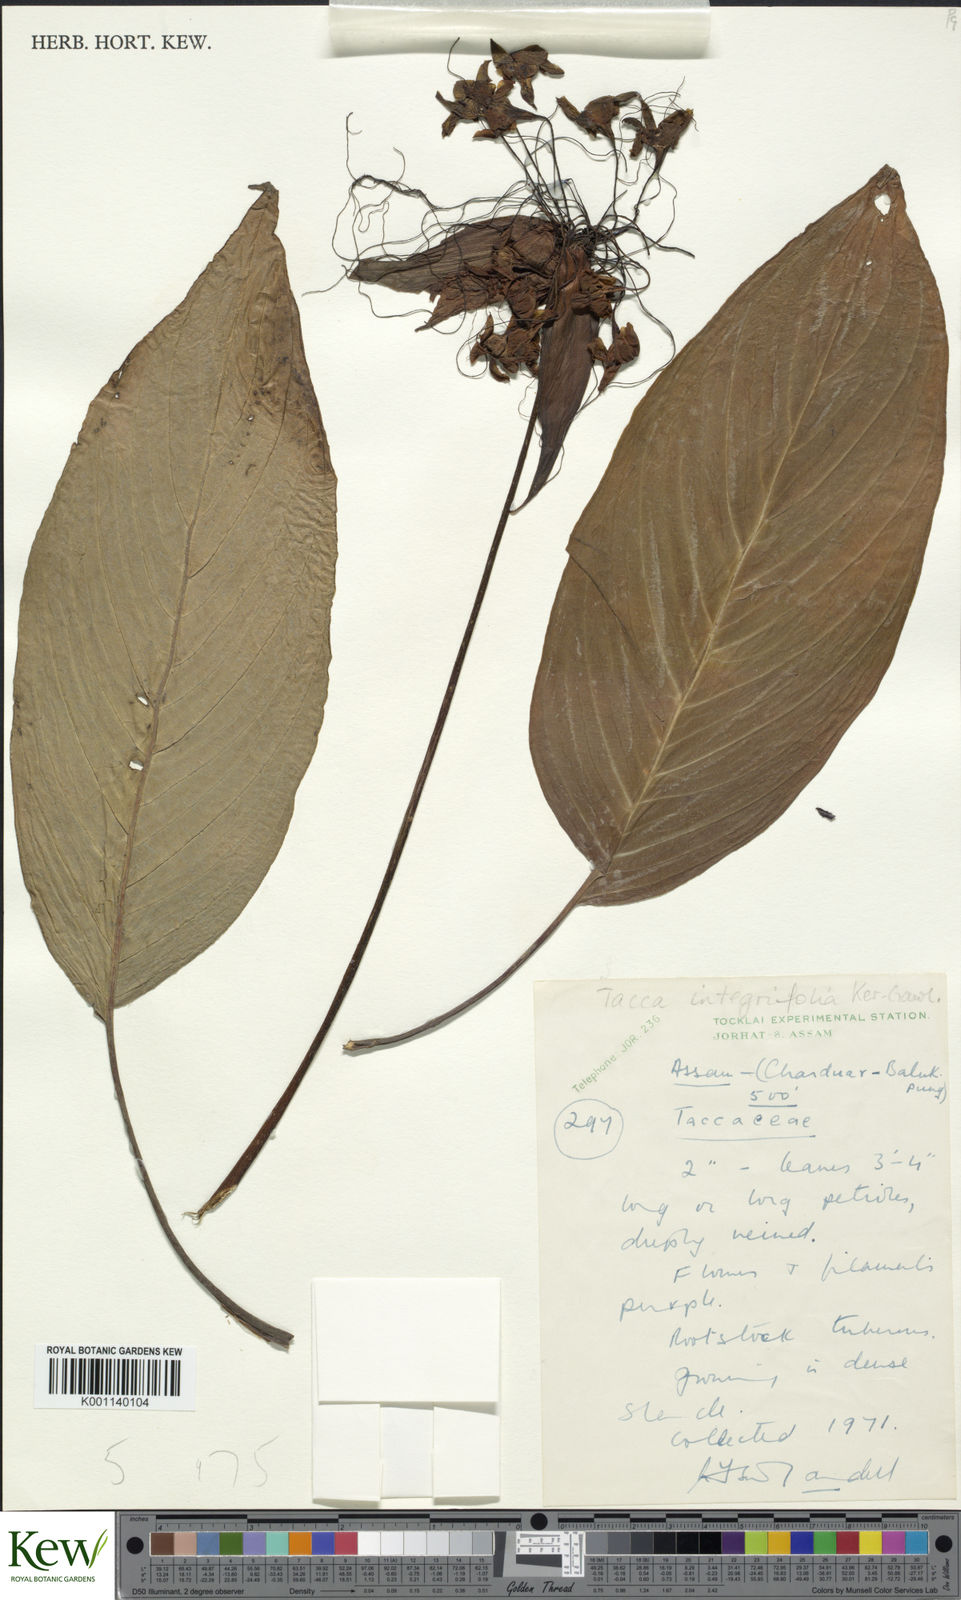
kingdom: Plantae
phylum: Tracheophyta
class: Liliopsida
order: Dioscoreales
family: Dioscoreaceae
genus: Tacca
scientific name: Tacca integrifolia
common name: Batplant
